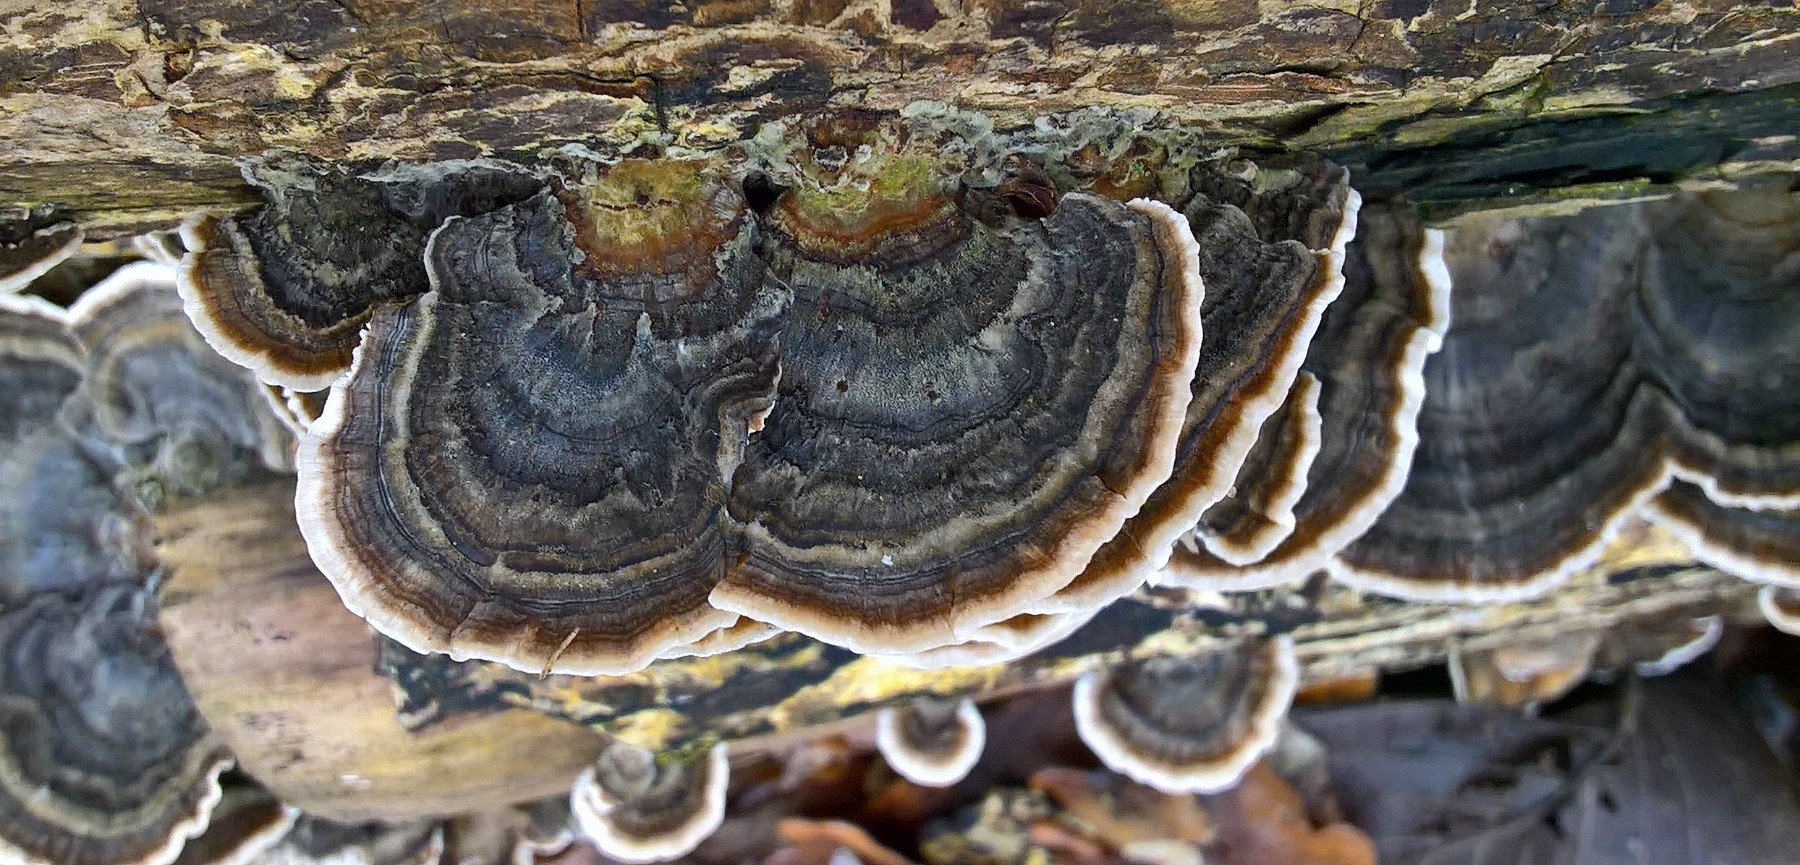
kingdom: Fungi
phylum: Basidiomycota
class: Agaricomycetes
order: Polyporales
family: Polyporaceae
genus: Trametes
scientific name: Trametes versicolor
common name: broget læderporesvamp
